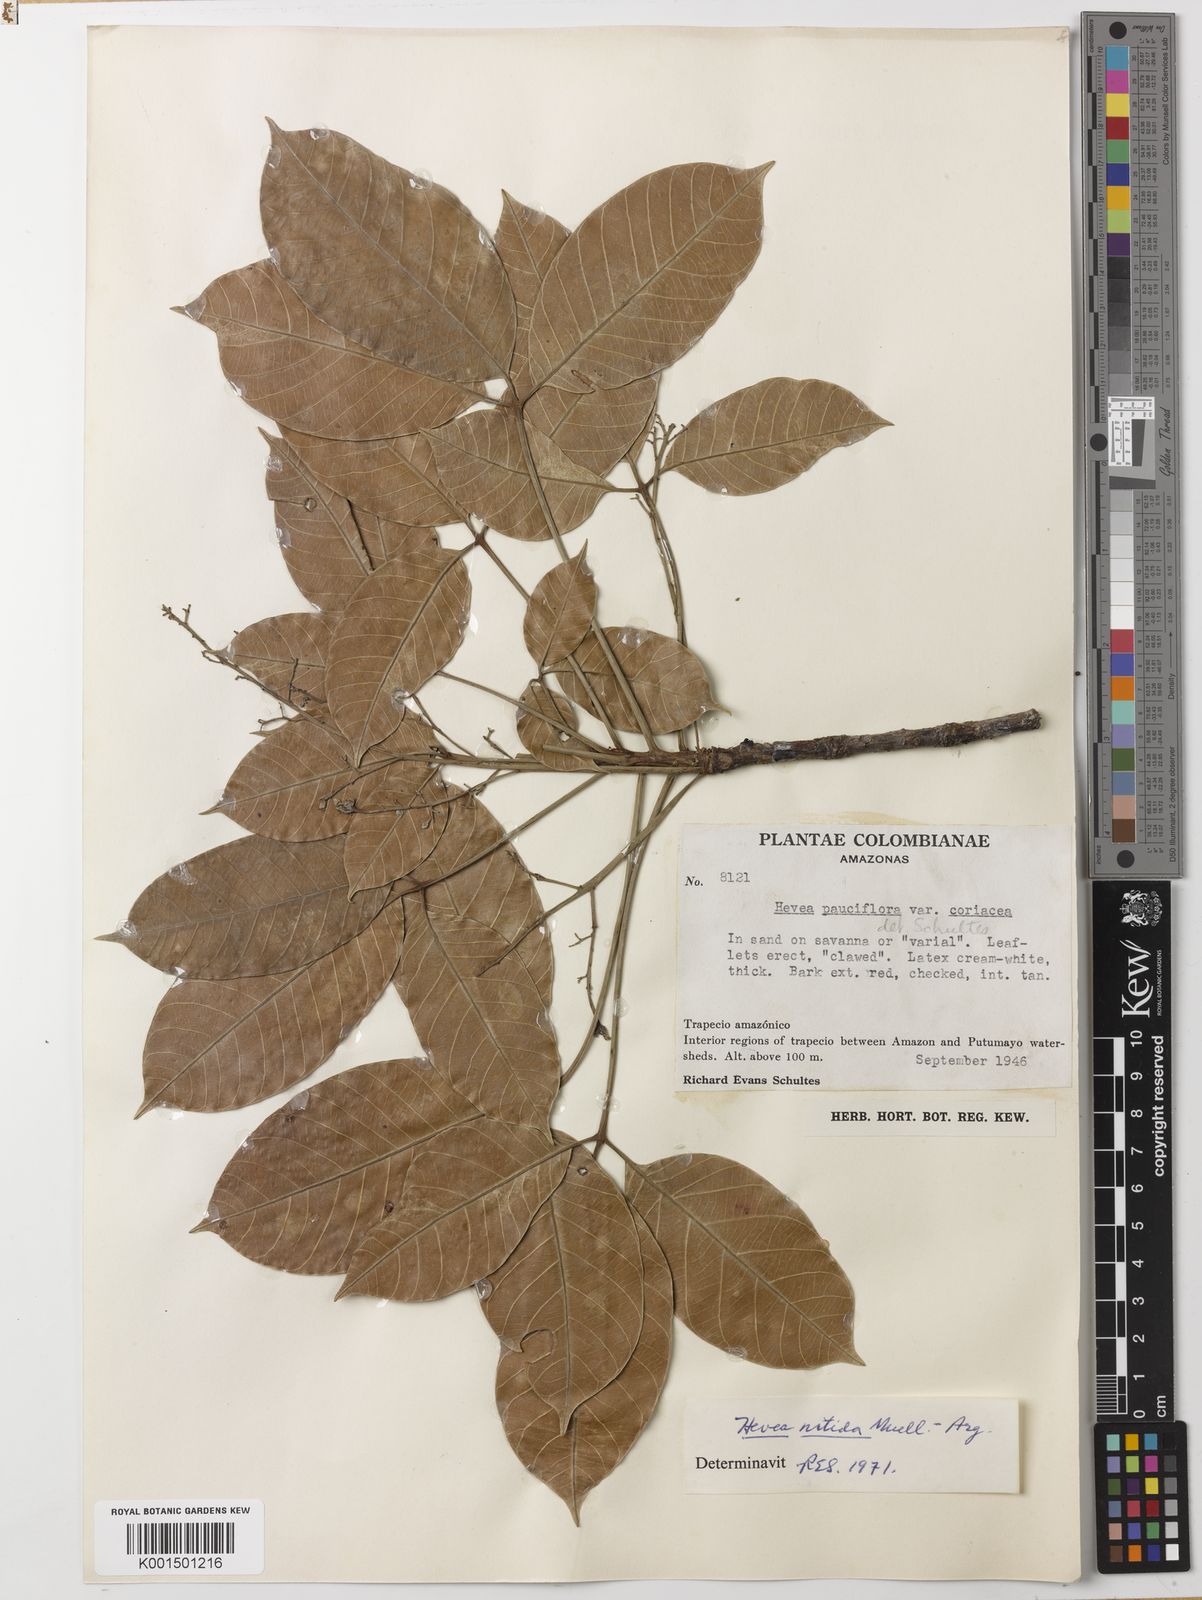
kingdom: Plantae
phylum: Tracheophyta
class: Magnoliopsida
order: Malpighiales
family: Euphorbiaceae
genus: Hevea
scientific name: Hevea nitida
